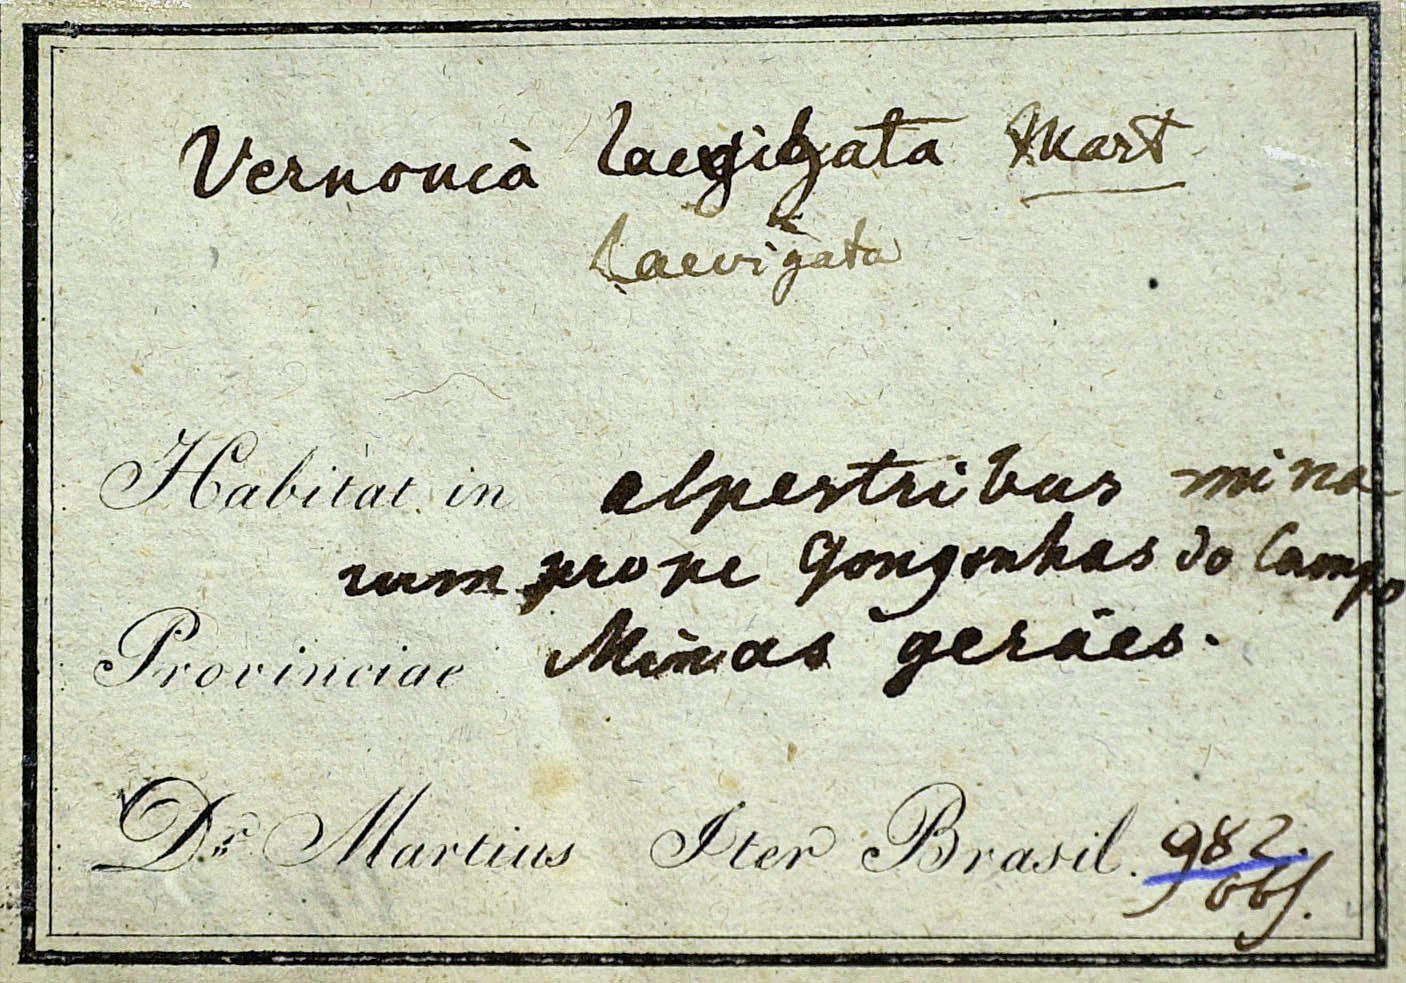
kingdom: Plantae
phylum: Tracheophyta
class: Magnoliopsida
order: Asterales
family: Asteraceae
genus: Lessingianthus
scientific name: Lessingianthus laevigatus
